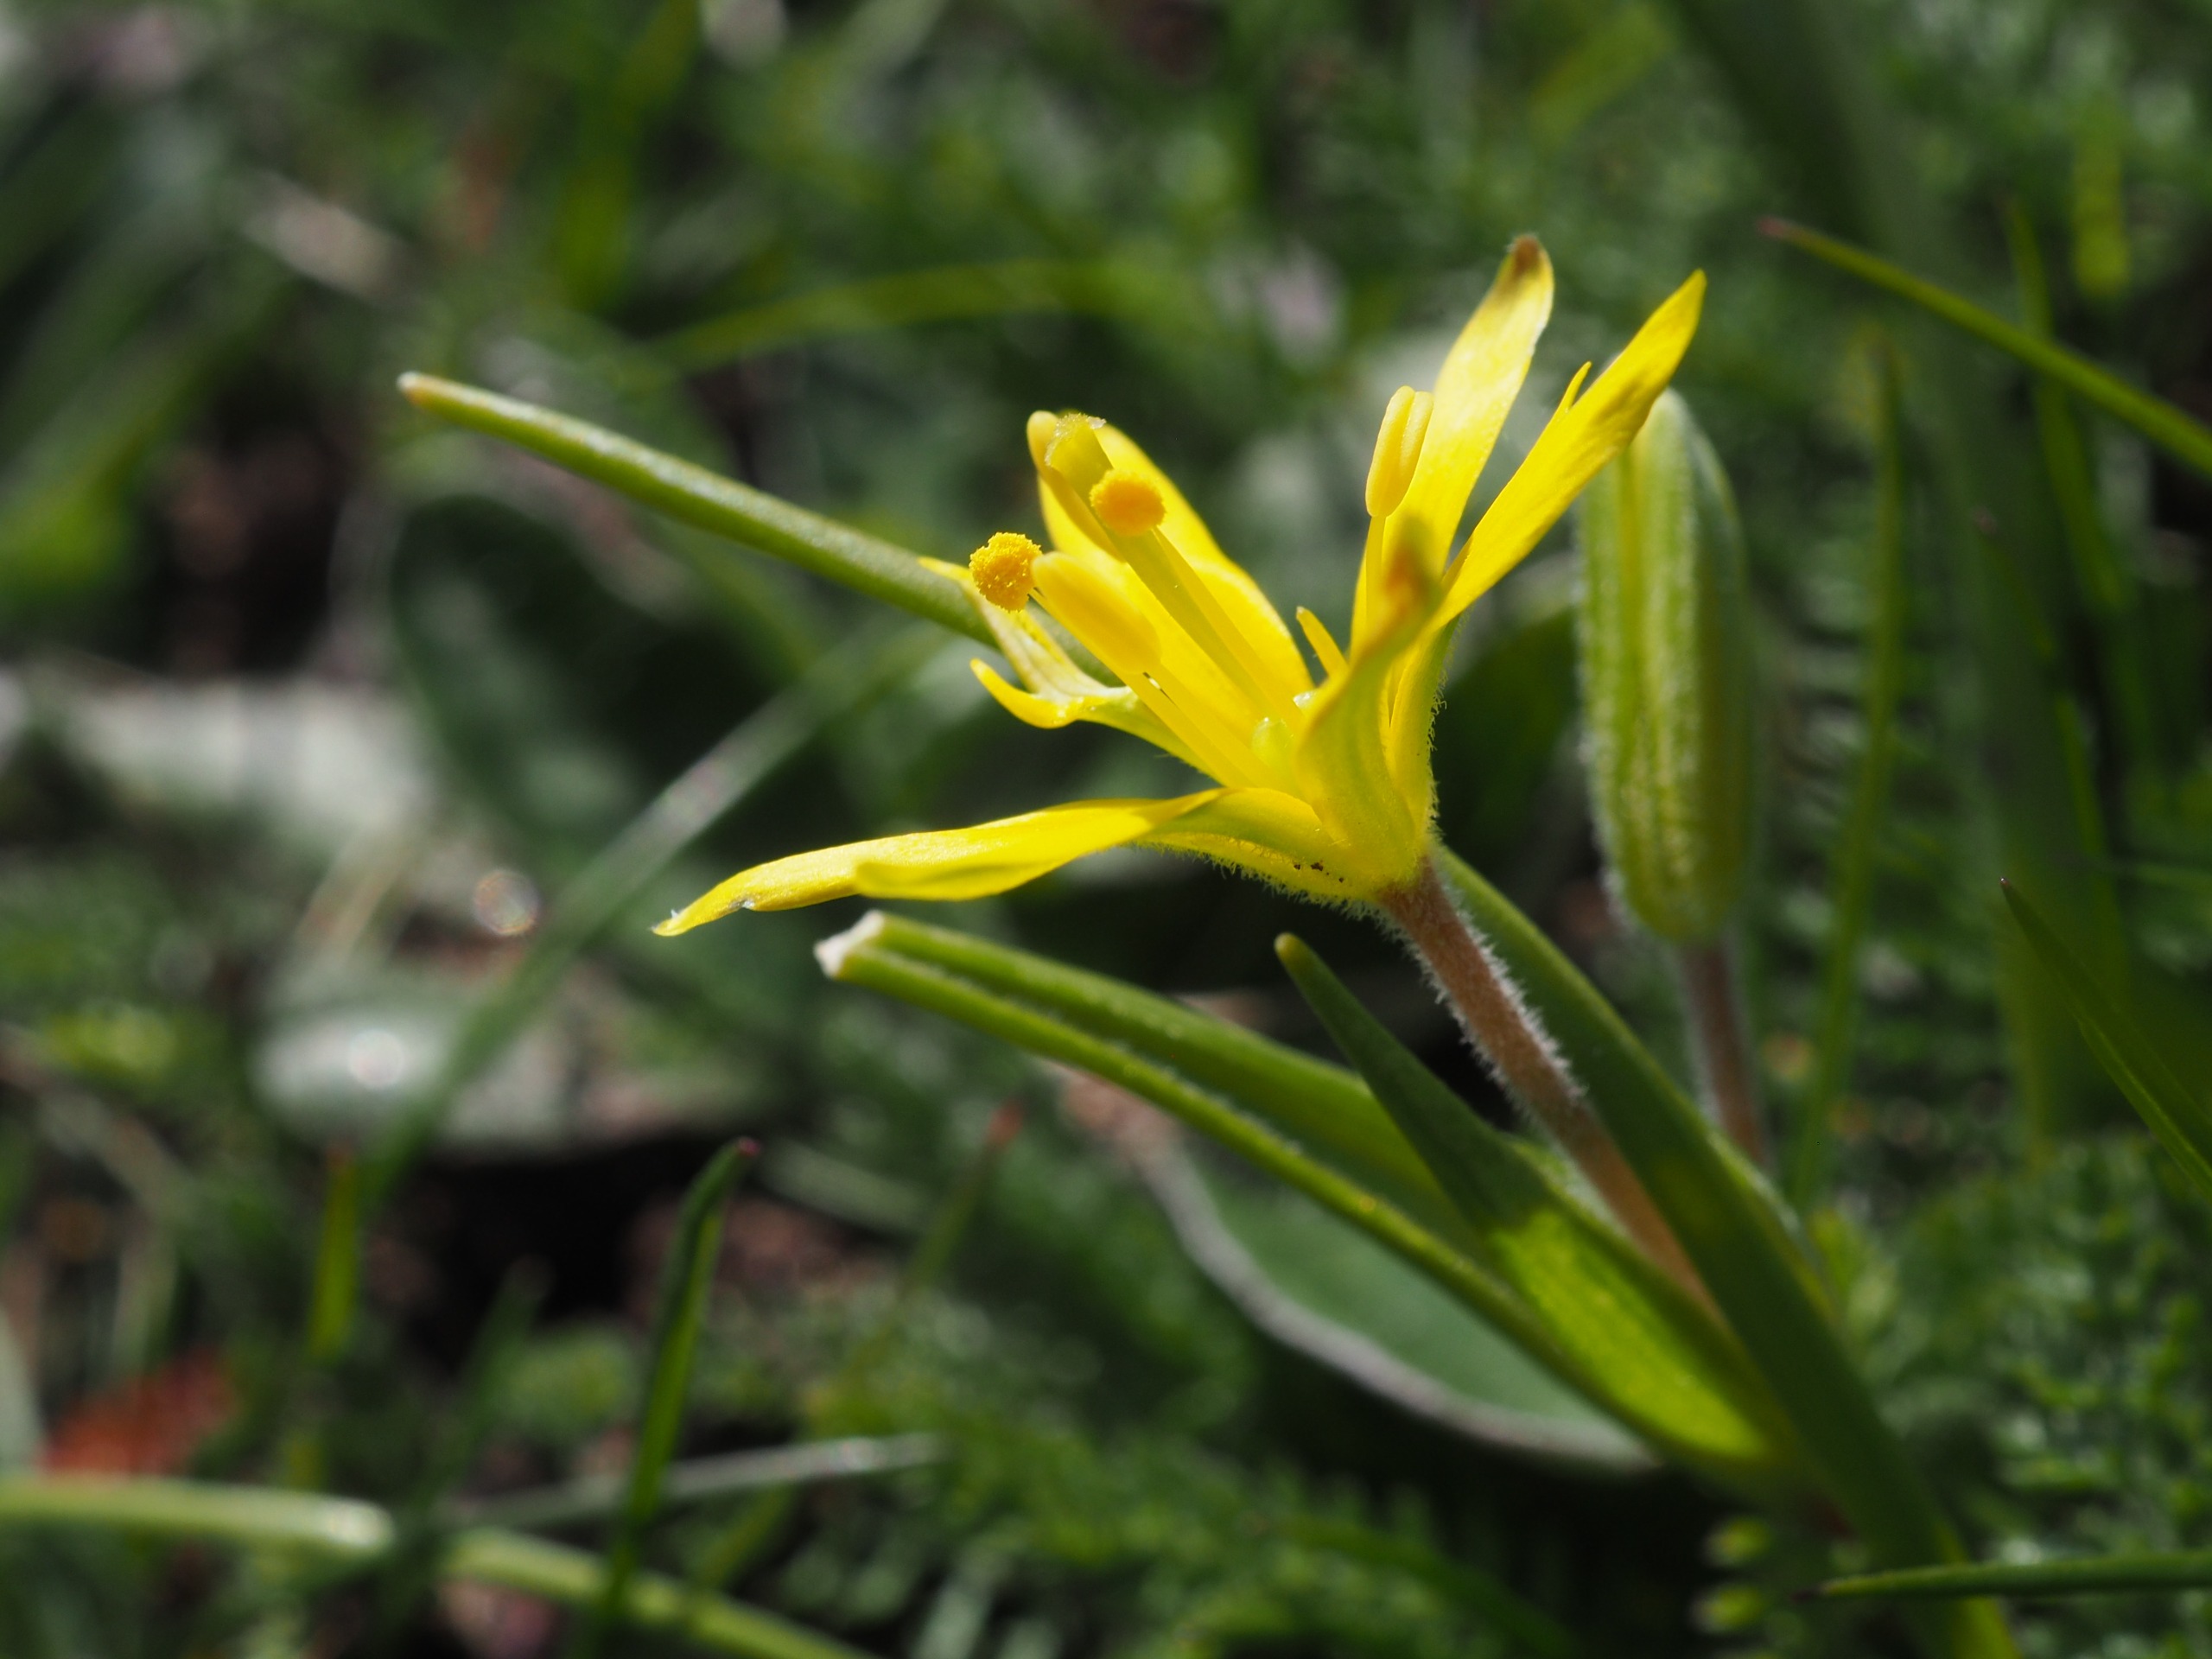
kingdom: Plantae
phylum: Tracheophyta
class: Liliopsida
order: Liliales
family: Liliaceae
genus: Gagea
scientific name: Gagea villosa
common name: Ager-guldstjerne
